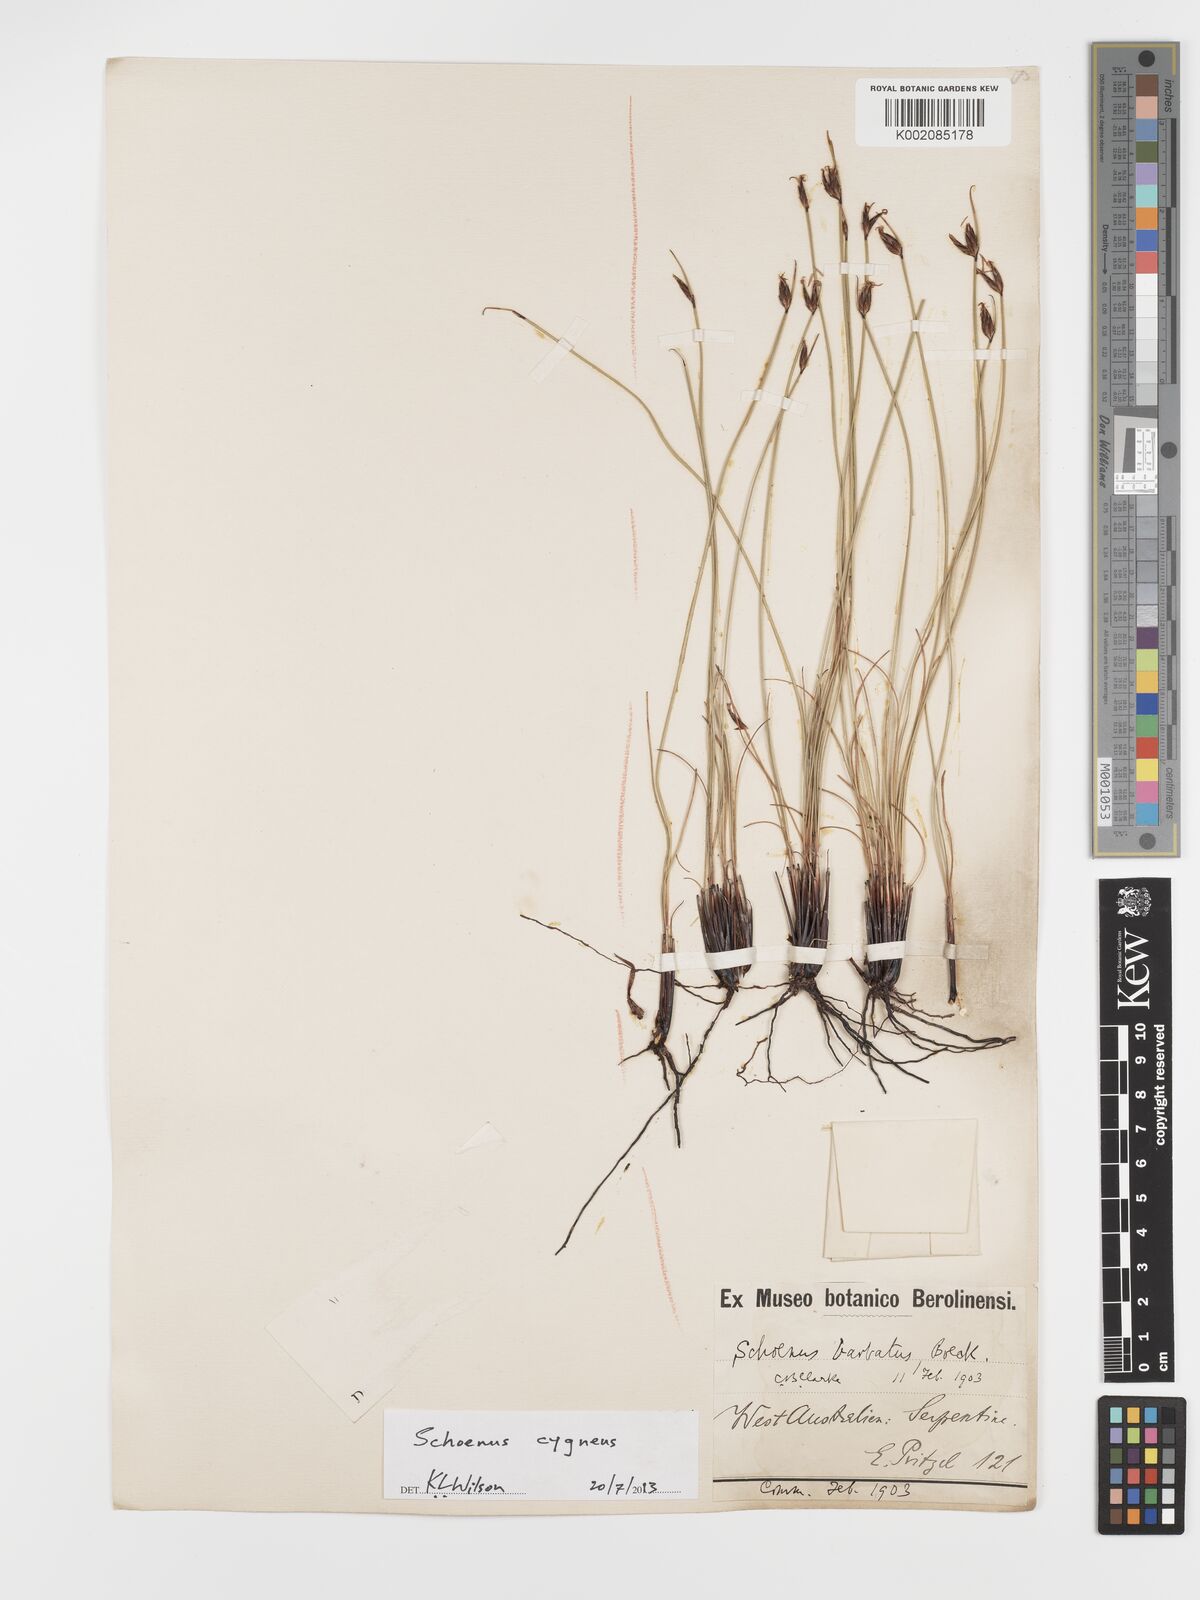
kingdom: Plantae
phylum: Tracheophyta
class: Liliopsida
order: Poales
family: Cyperaceae
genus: Schoenus
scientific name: Schoenus cygneus
